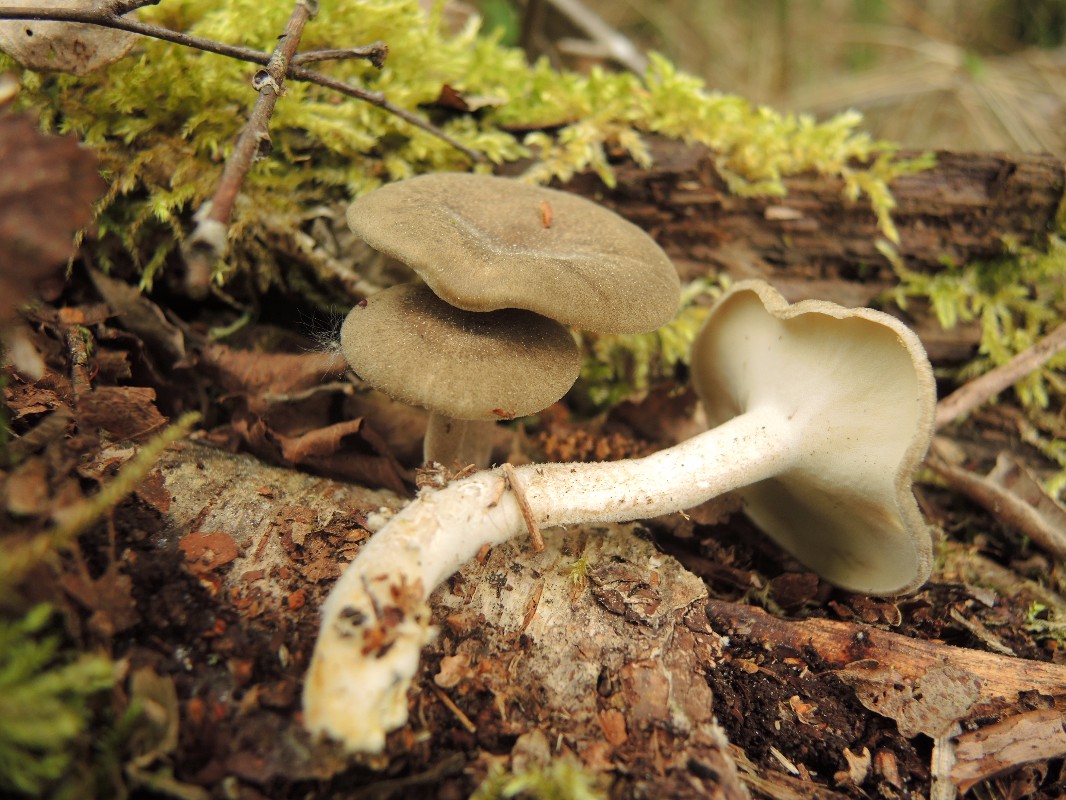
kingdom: Fungi
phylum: Basidiomycota
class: Agaricomycetes
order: Polyporales
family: Polyporaceae
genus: Lentinus
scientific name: Lentinus substrictus
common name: forårs-stilkporesvamp
